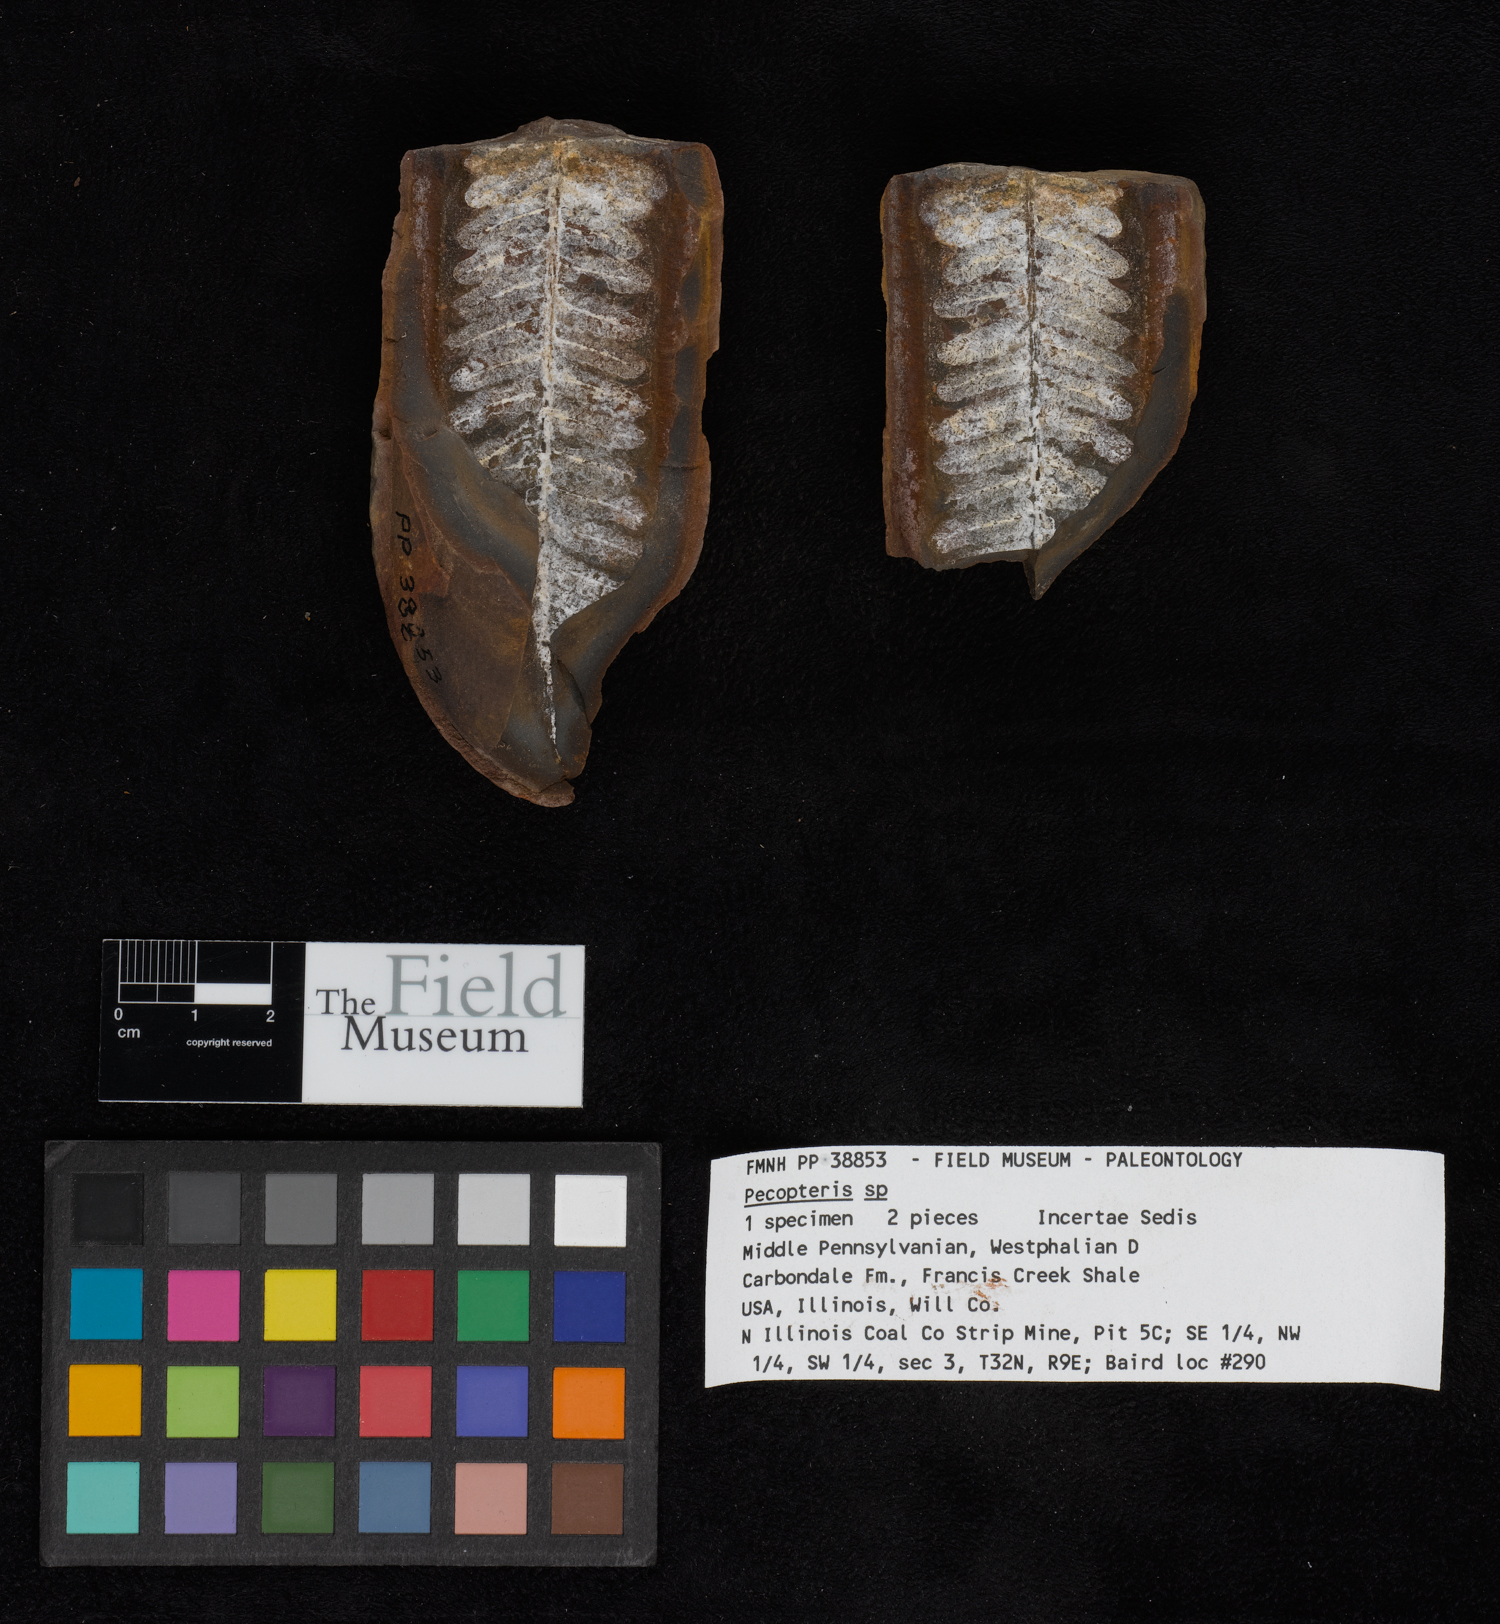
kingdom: Plantae
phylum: Tracheophyta
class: Polypodiopsida
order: Marattiales
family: Asterothecaceae
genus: Pecopteris
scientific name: Pecopteris
